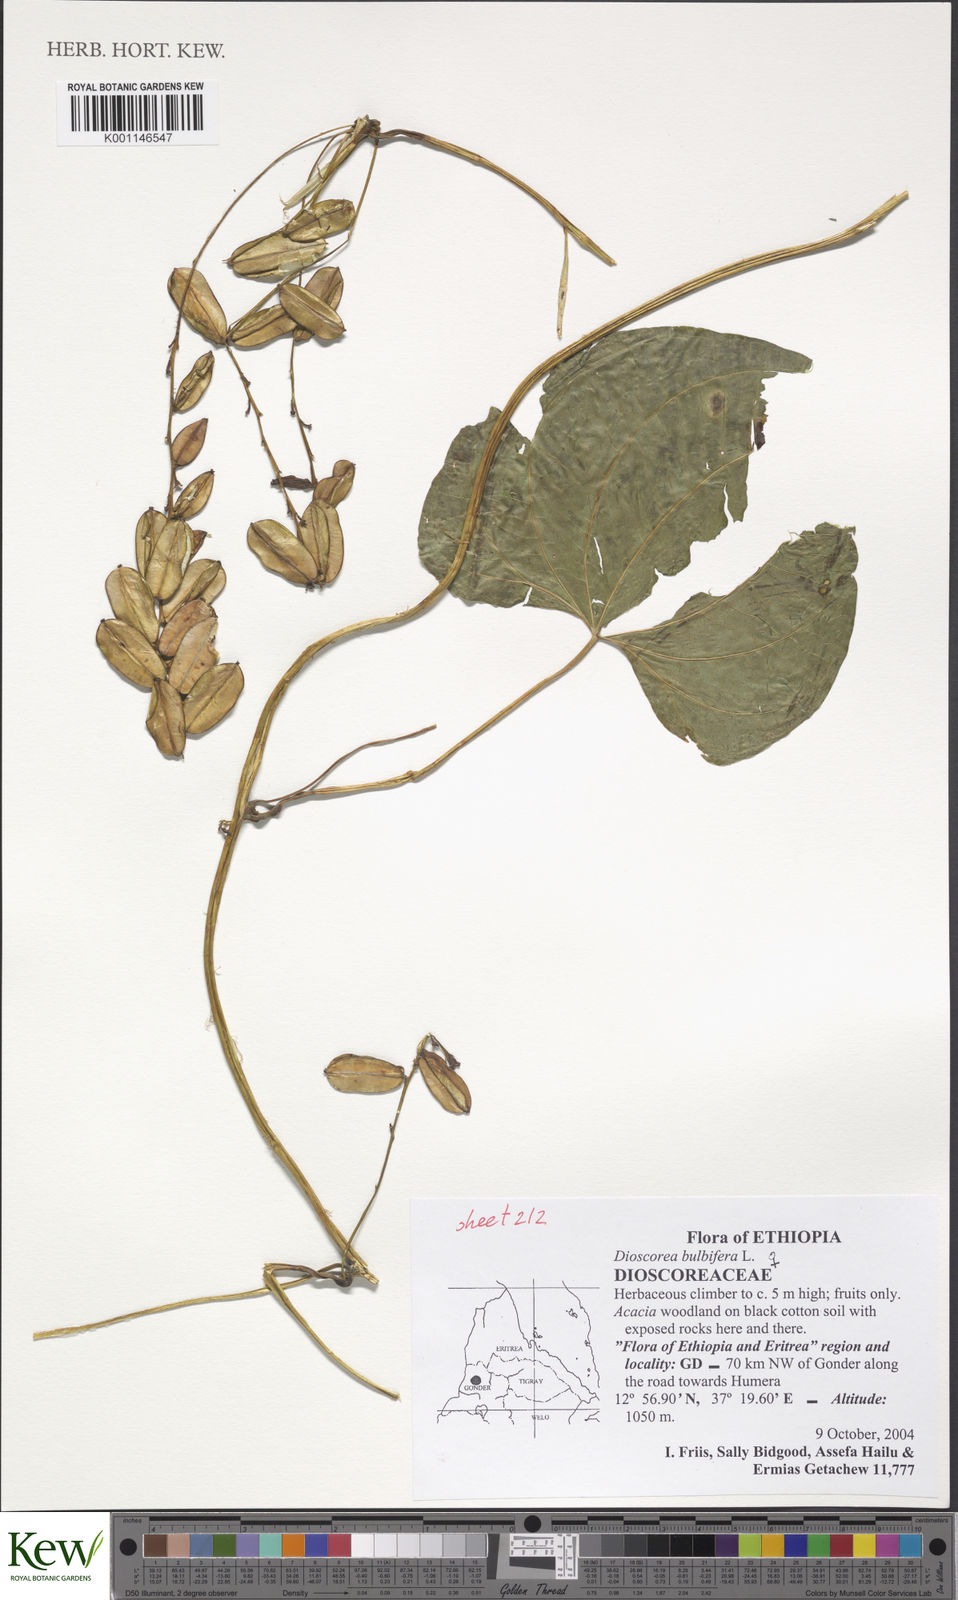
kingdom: Plantae
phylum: Tracheophyta
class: Liliopsida
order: Dioscoreales
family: Dioscoreaceae
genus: Dioscorea
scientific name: Dioscorea bulbifera
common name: Air yam
